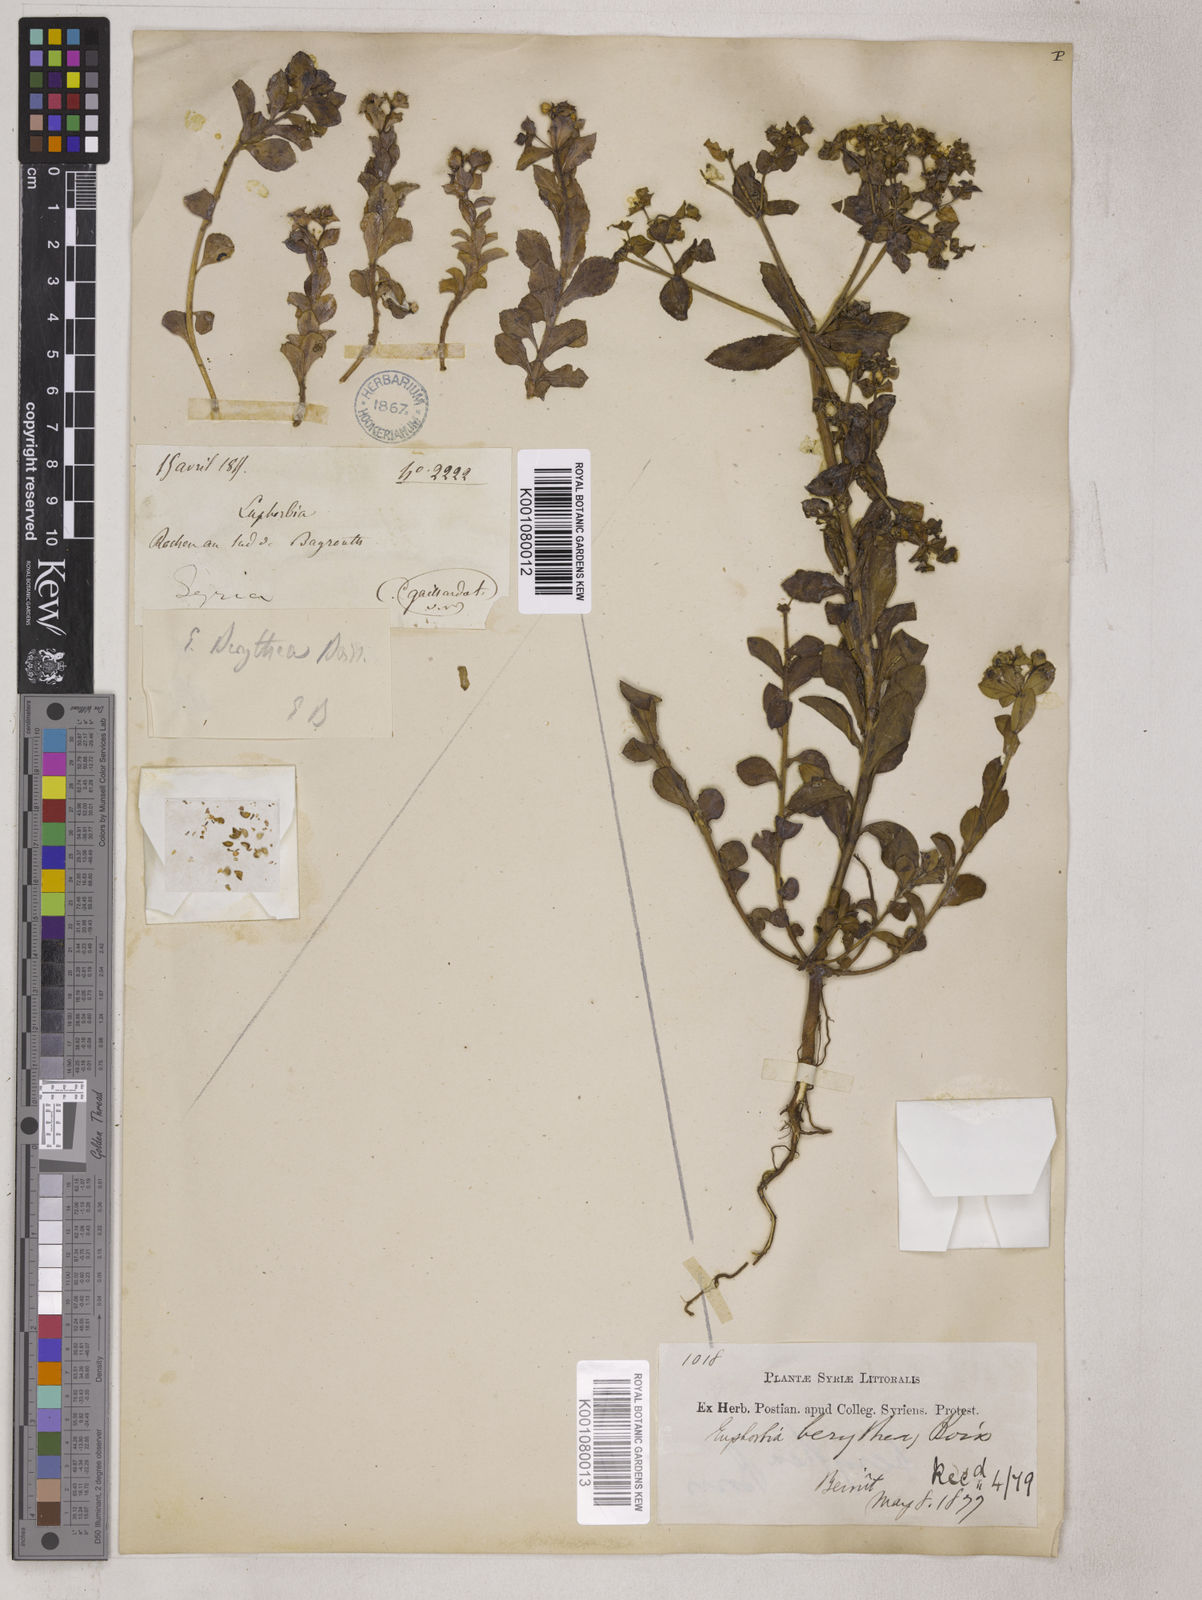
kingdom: Plantae
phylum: Tracheophyta
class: Magnoliopsida
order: Malpighiales
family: Euphorbiaceae
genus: Euphorbia
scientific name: Euphorbia berythea
